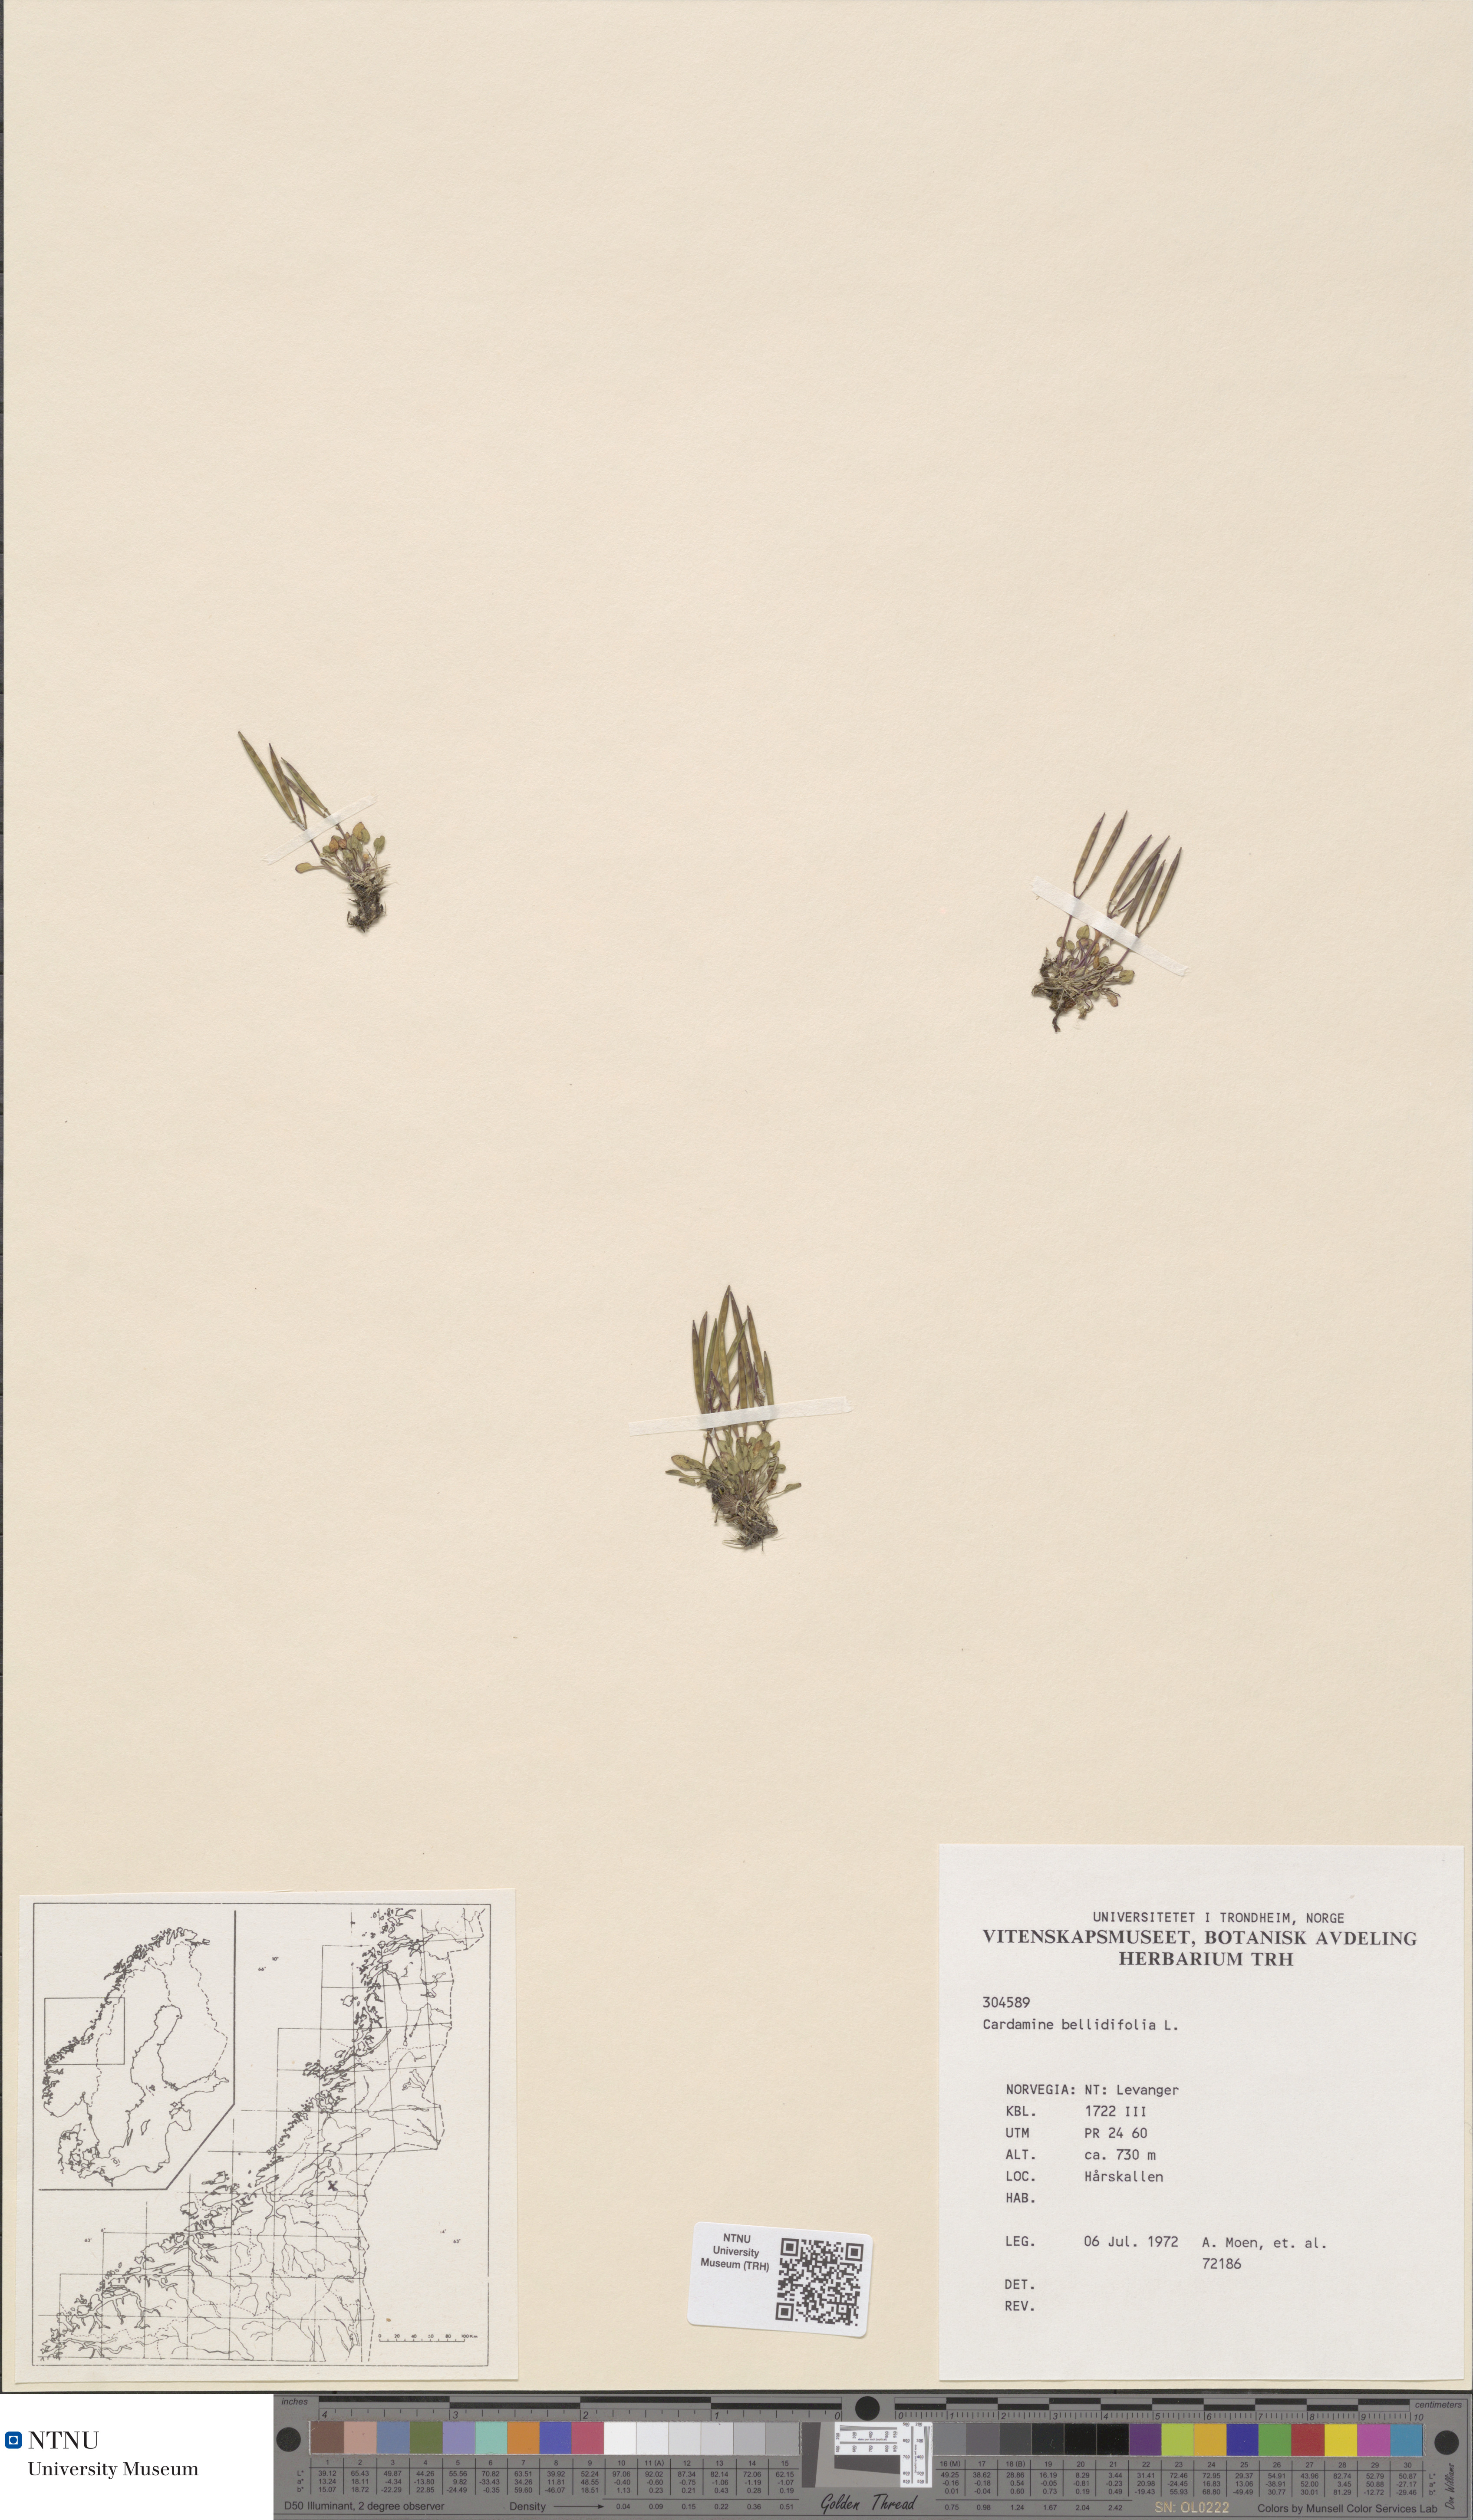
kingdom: Plantae
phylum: Tracheophyta
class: Magnoliopsida
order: Brassicales
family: Brassicaceae
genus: Cardamine
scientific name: Cardamine bellidifolia
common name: Alpine bittercress
